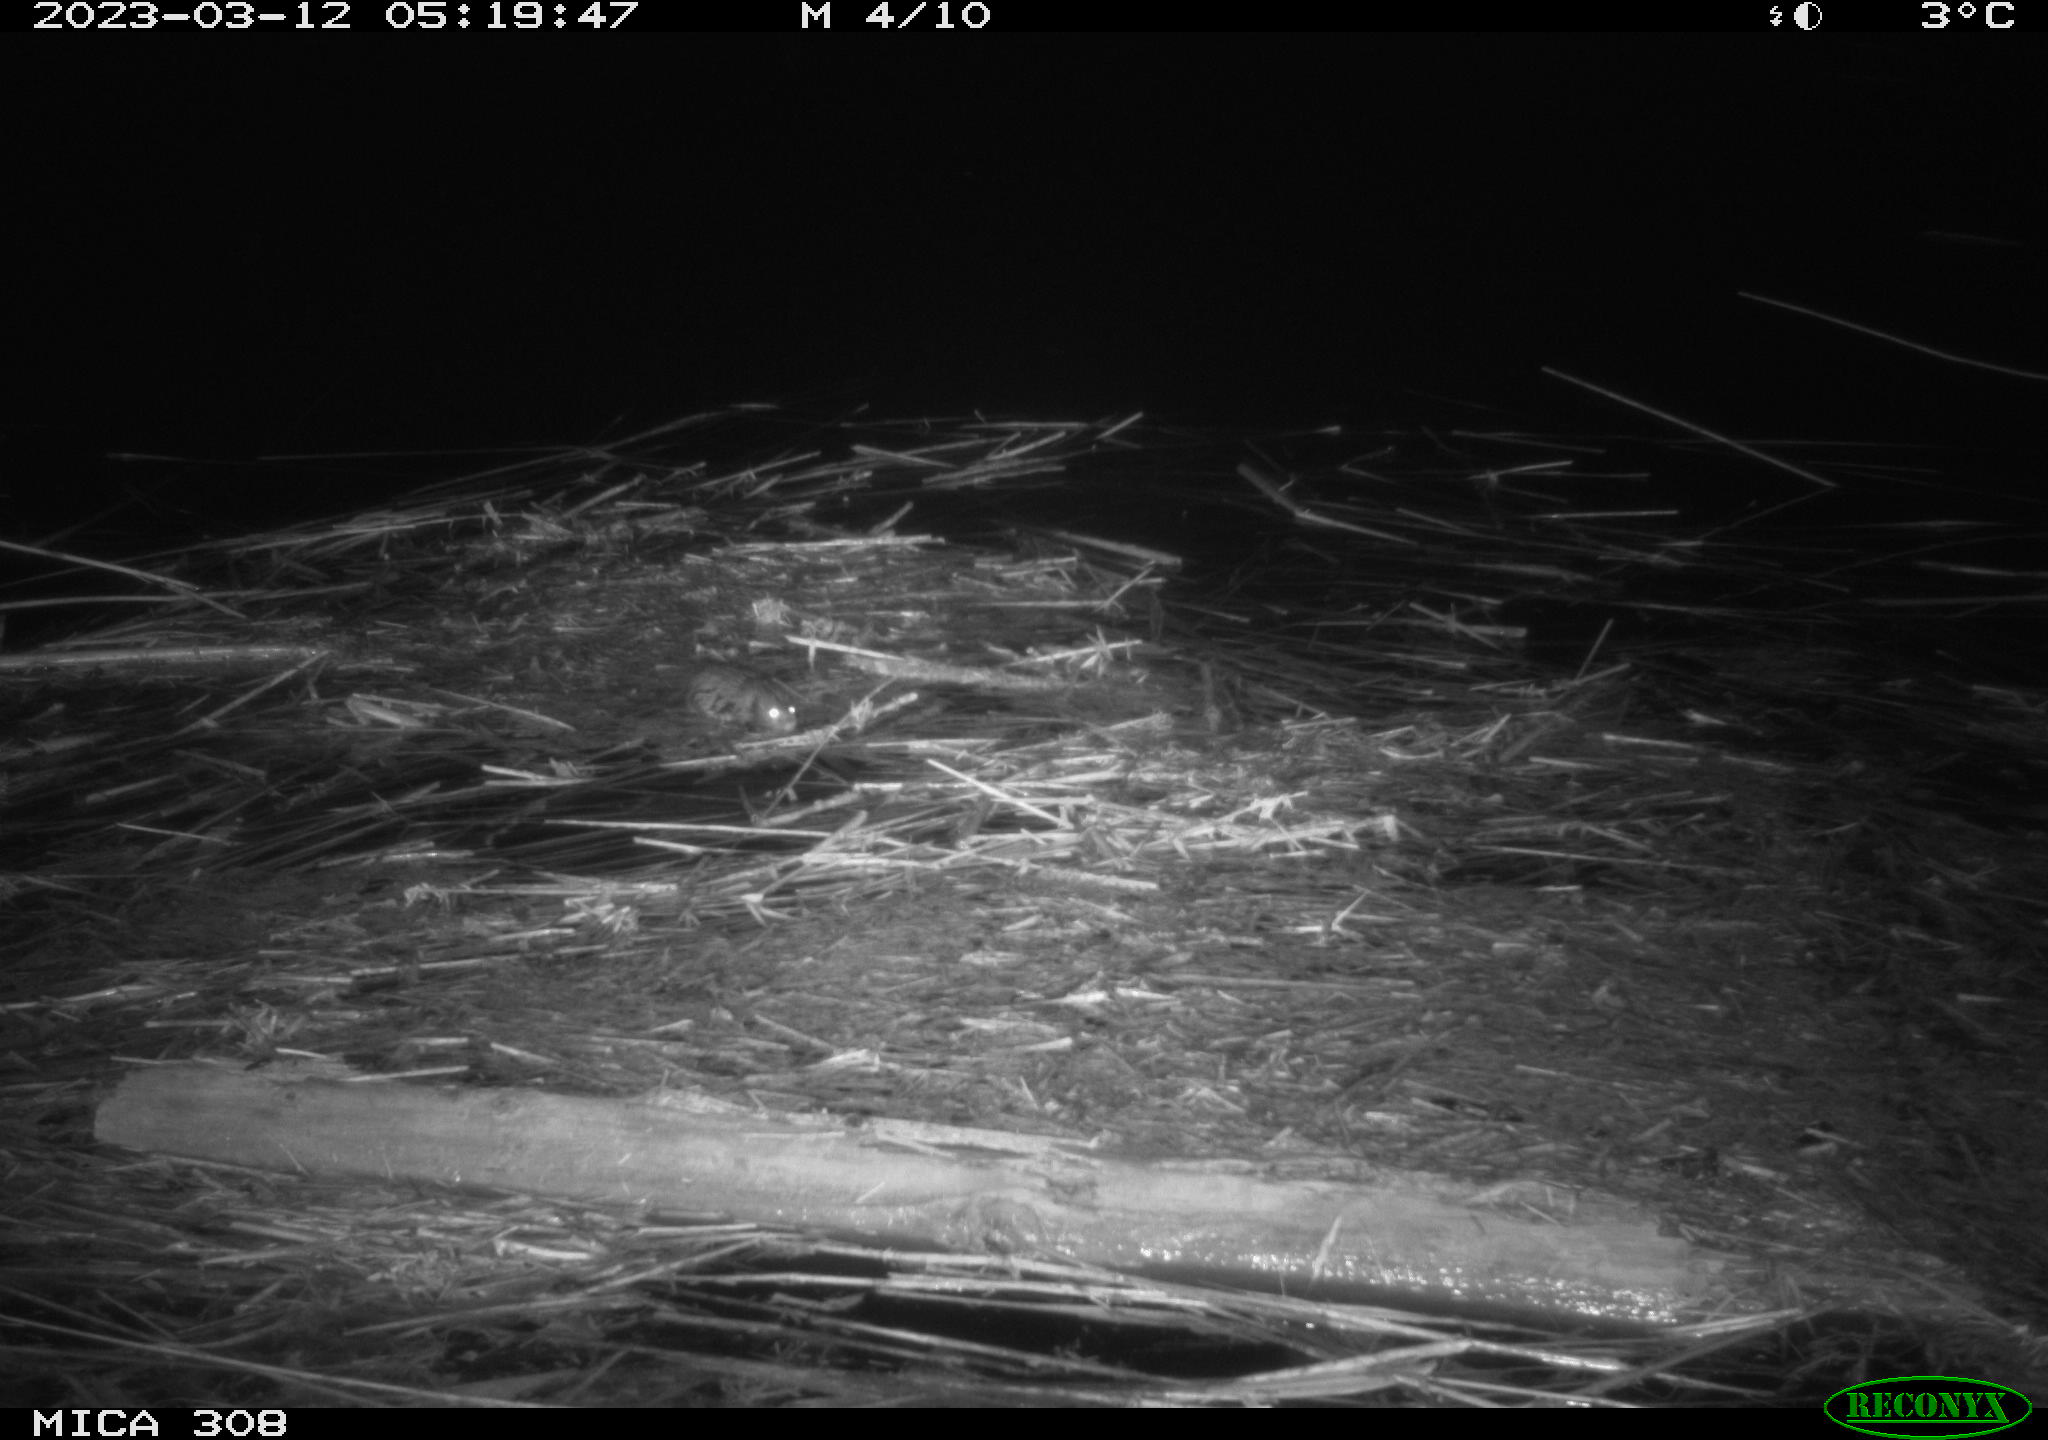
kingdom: Animalia
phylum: Chordata
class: Mammalia
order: Rodentia
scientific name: Rodentia
